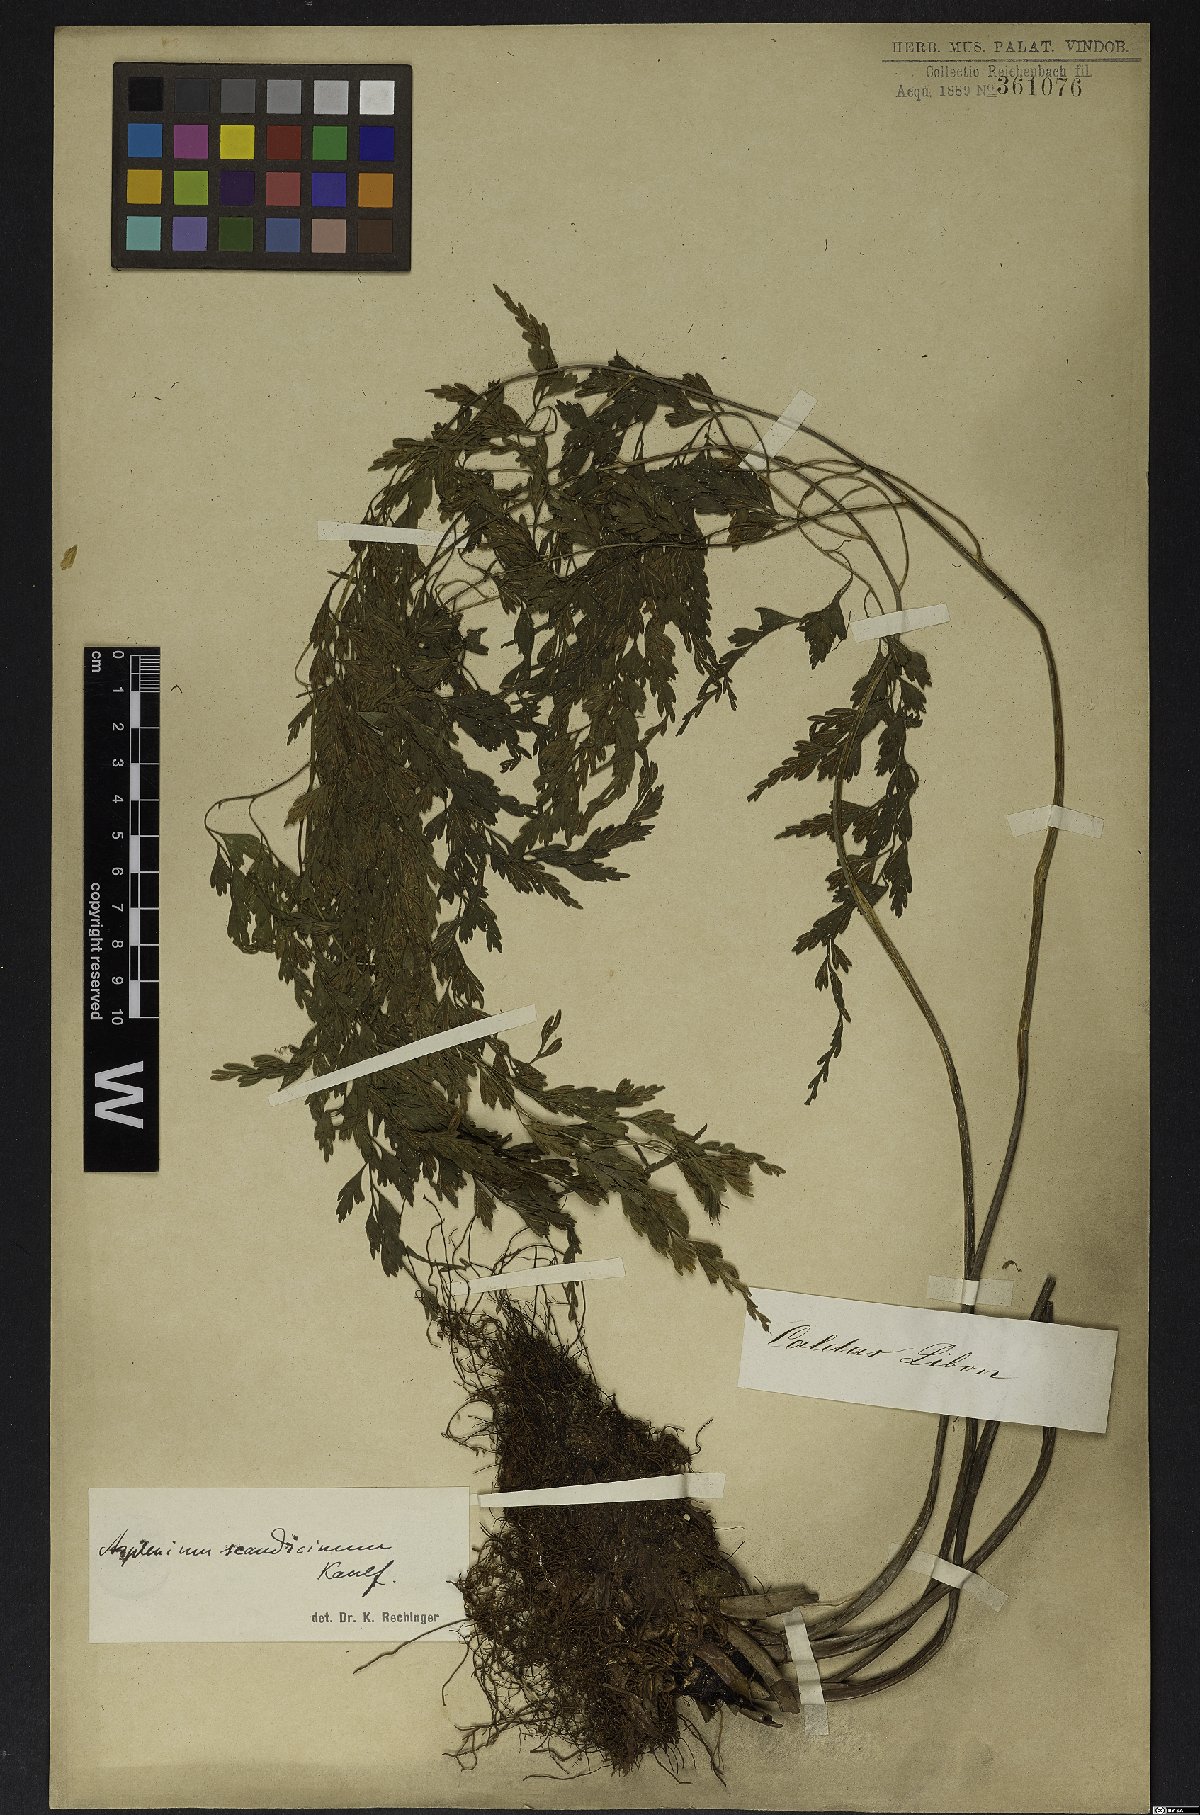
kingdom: Plantae
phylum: Tracheophyta
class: Polypodiopsida
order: Polypodiales
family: Aspleniaceae
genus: Asplenium
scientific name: Asplenium scandicinum
